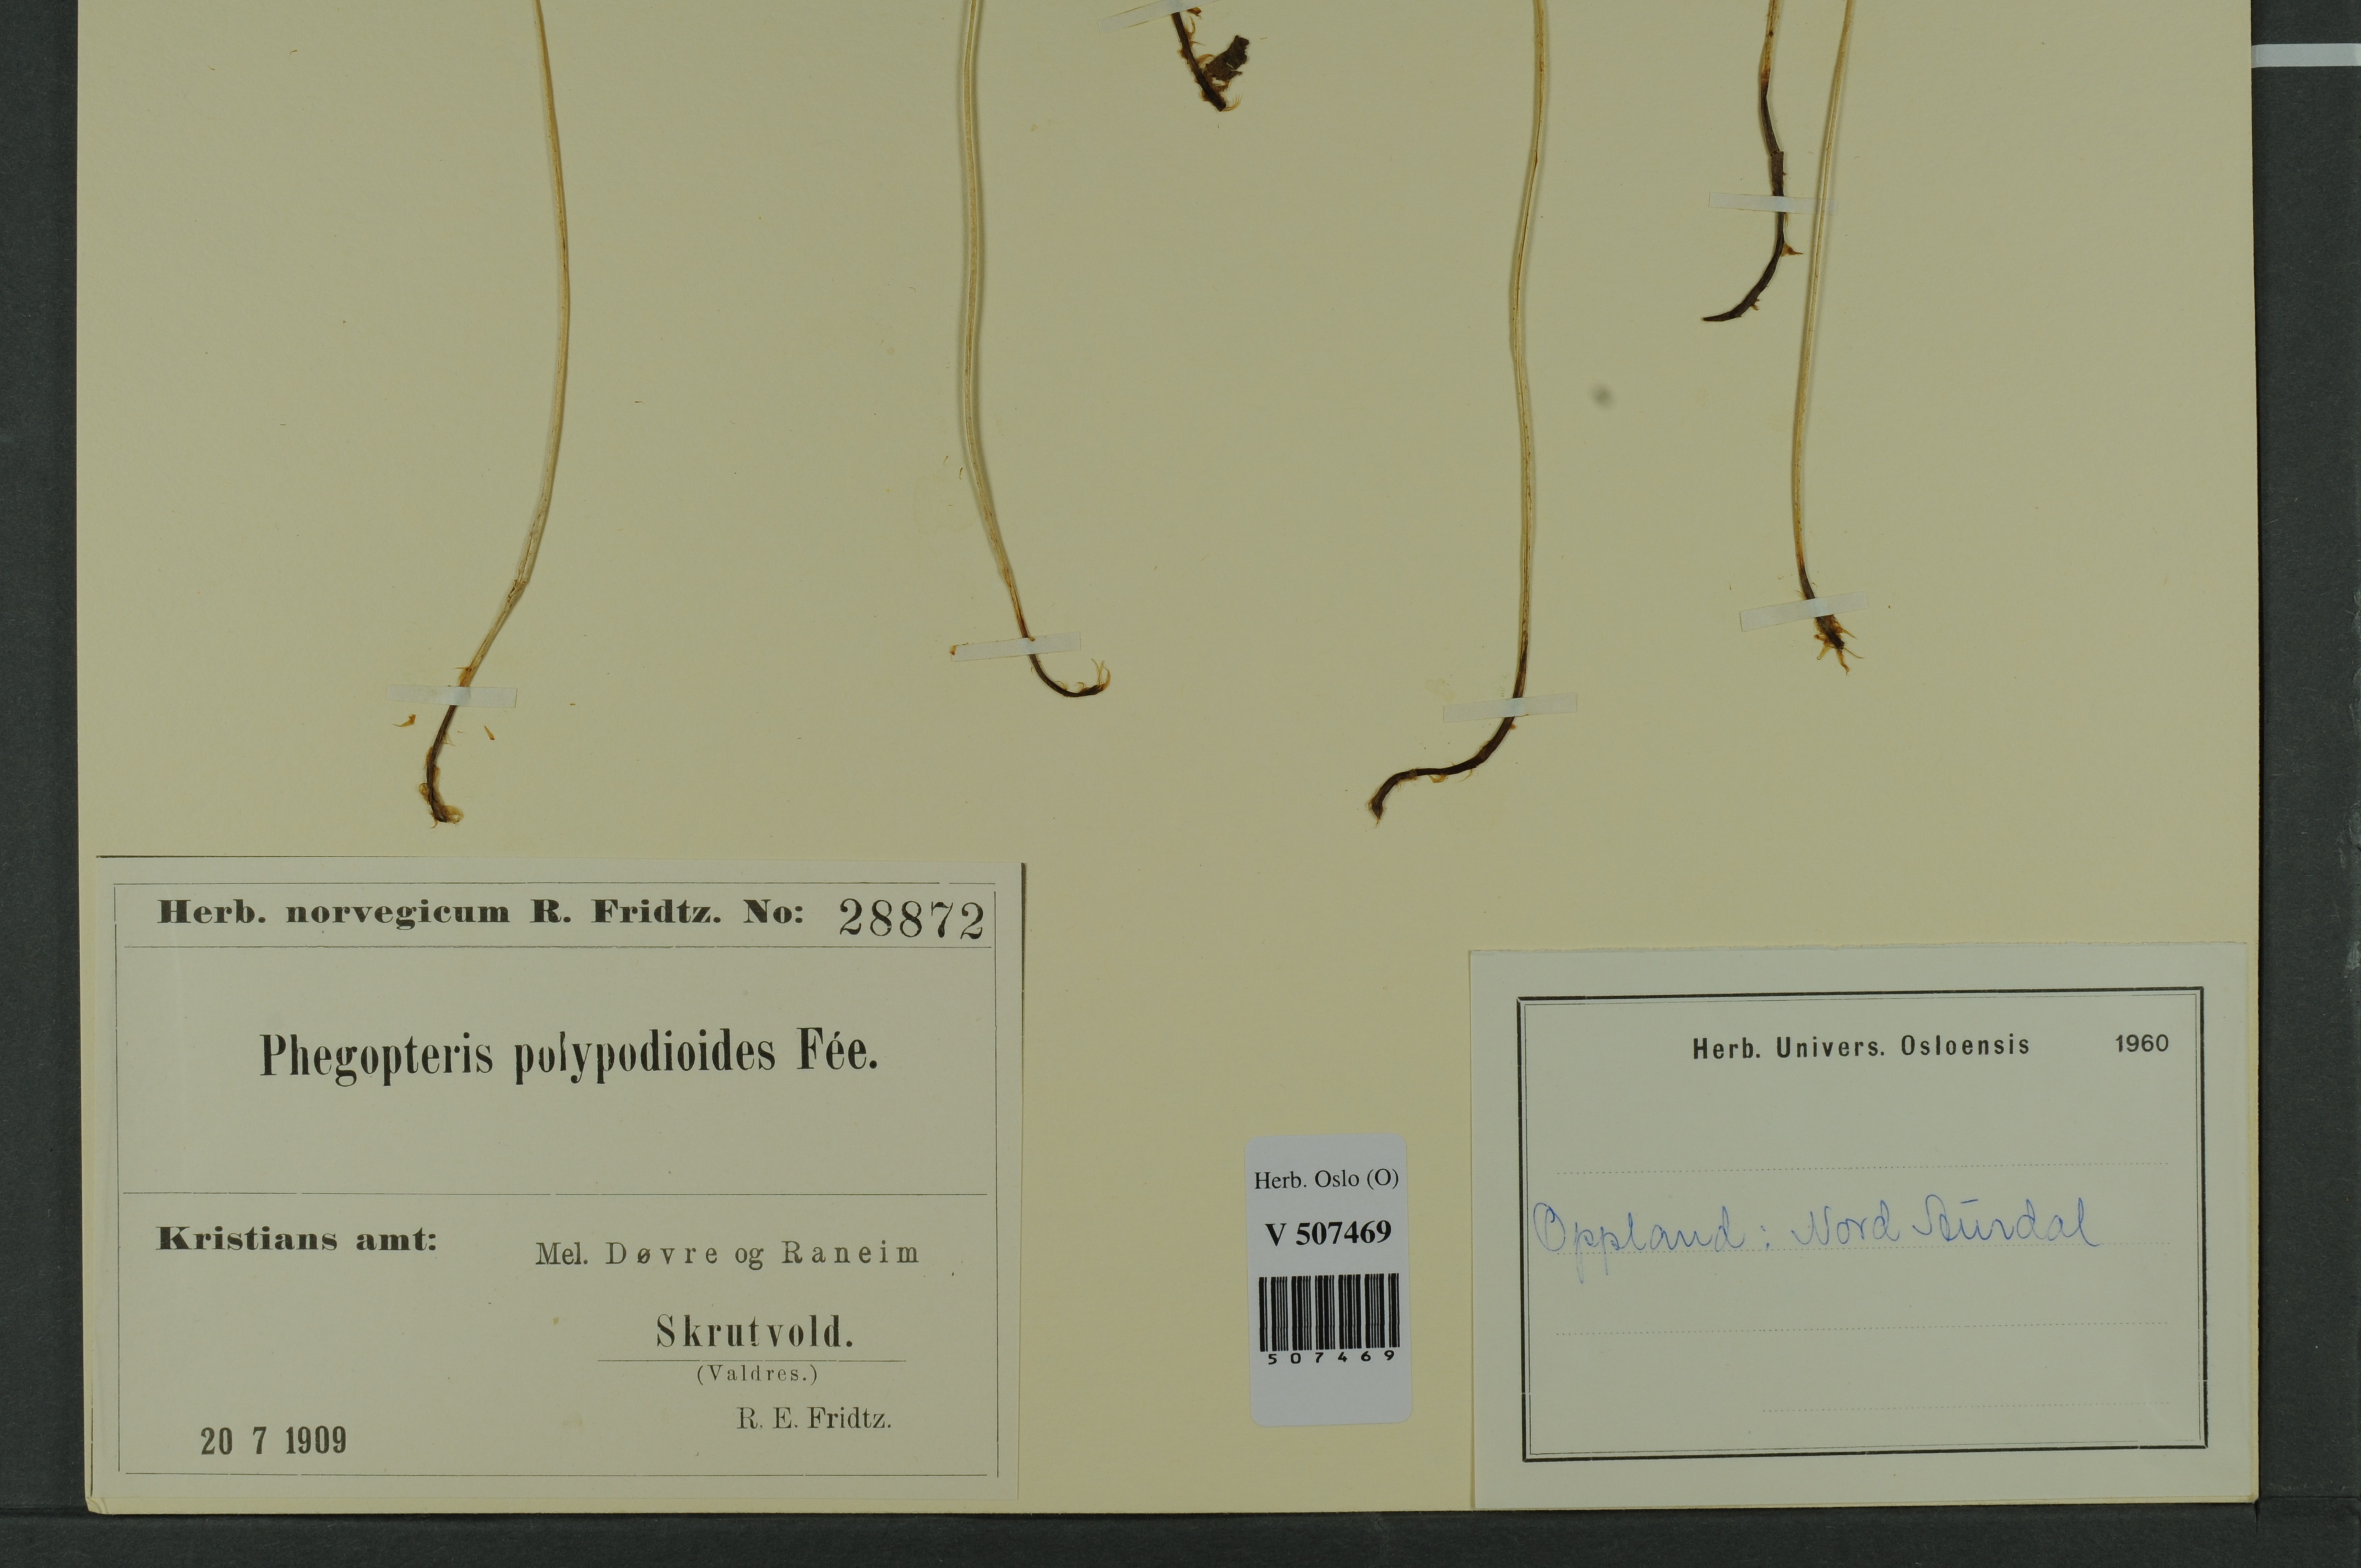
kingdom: Plantae
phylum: Tracheophyta
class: Polypodiopsida
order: Polypodiales
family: Thelypteridaceae
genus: Phegopteris
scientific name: Phegopteris connectilis
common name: Beech fern
